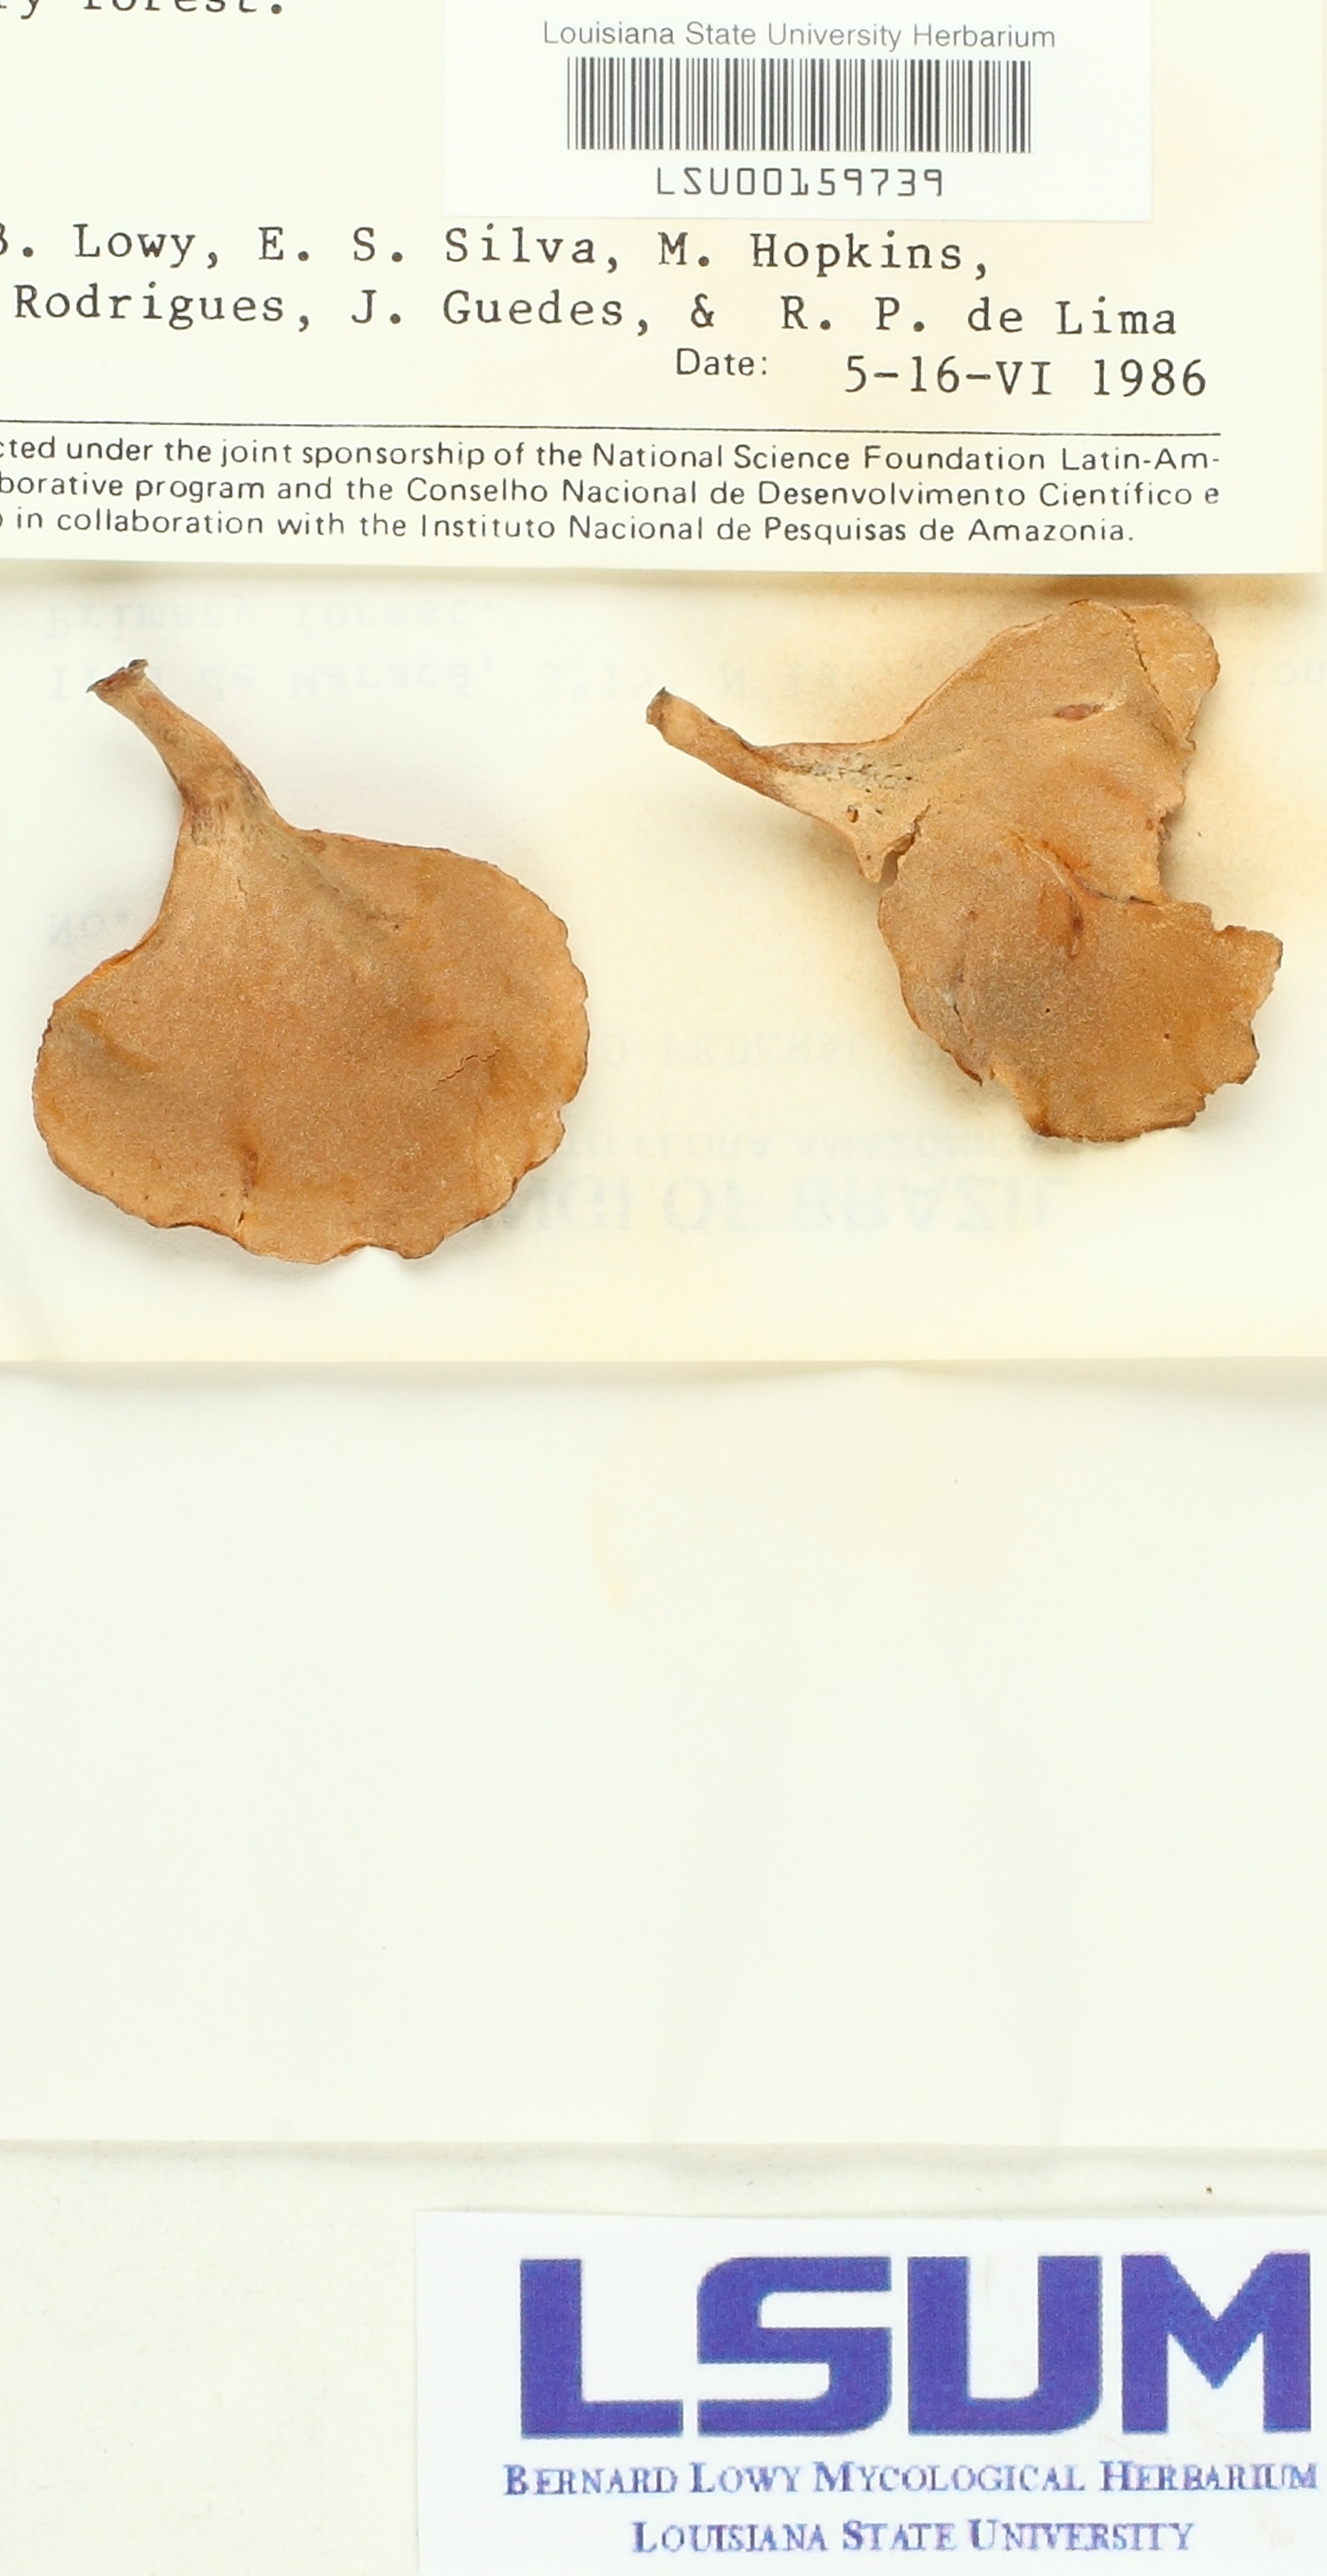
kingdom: Fungi
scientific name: Fungi
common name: Fungi
